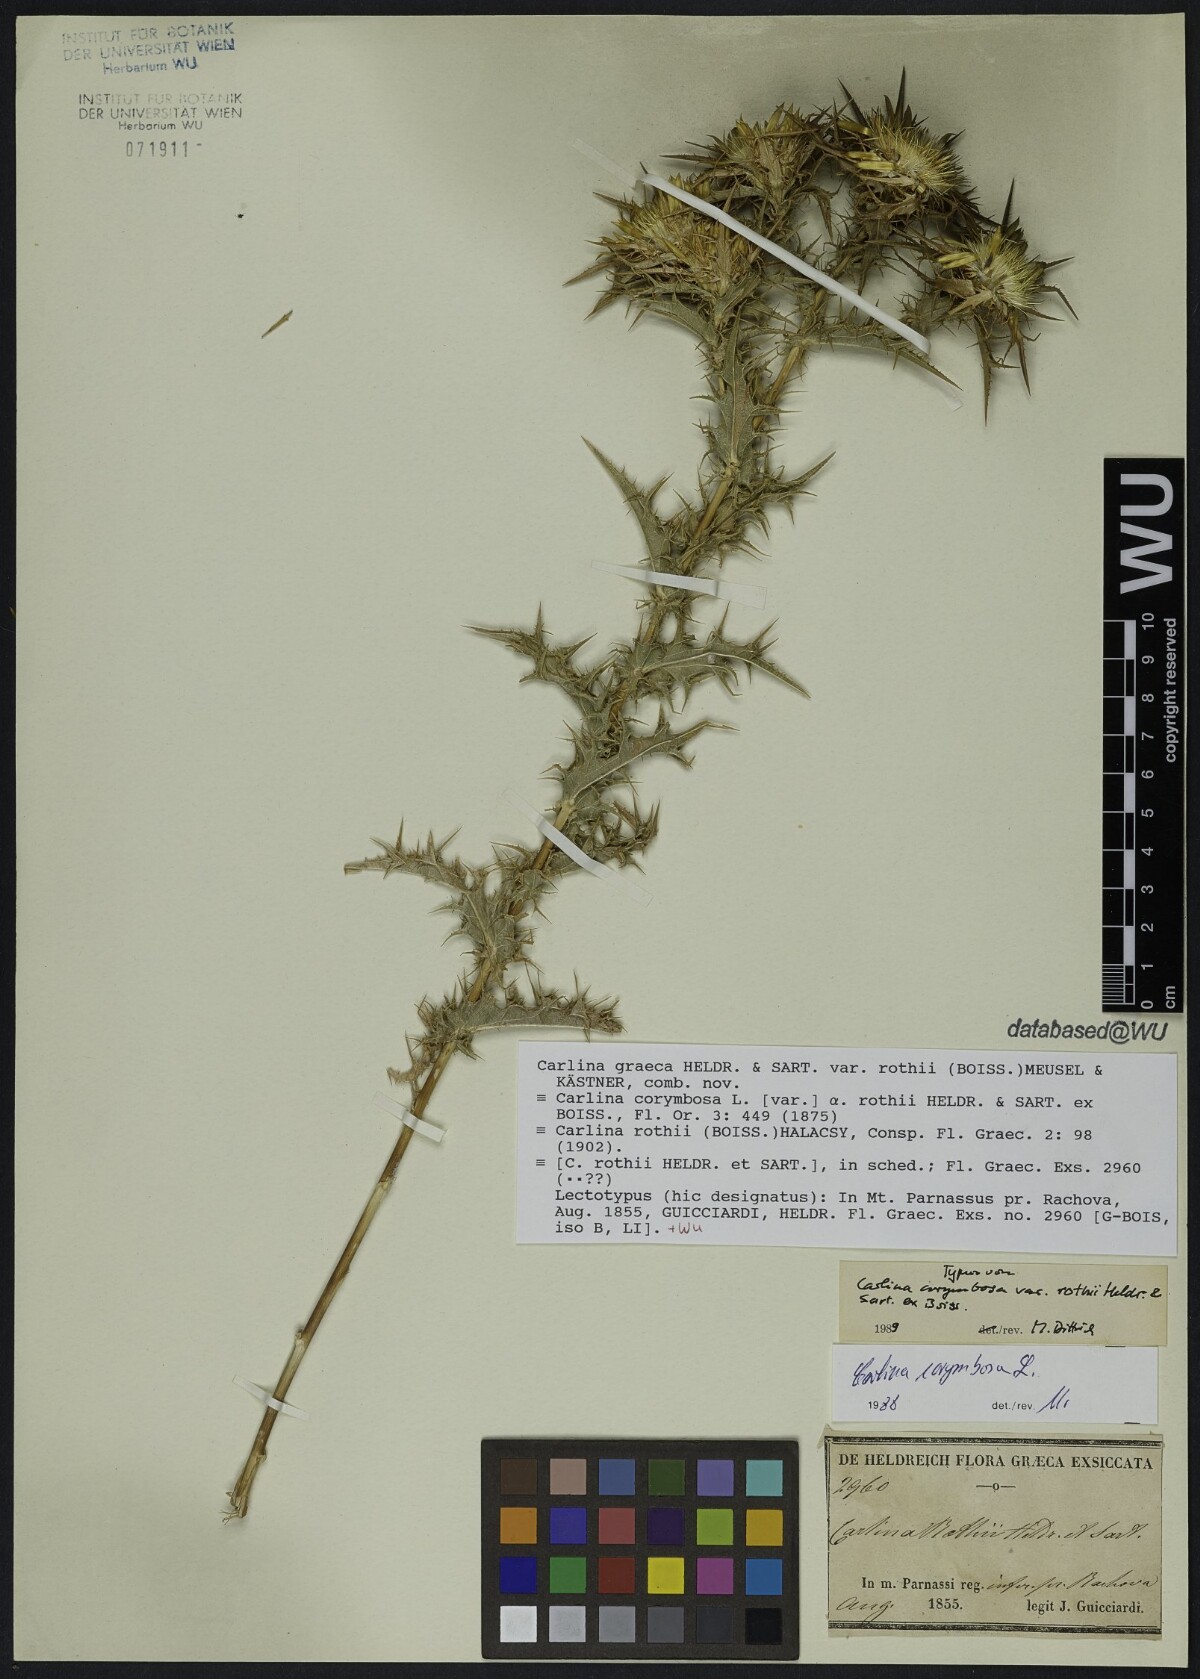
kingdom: Plantae
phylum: Tracheophyta
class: Magnoliopsida
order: Asterales
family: Asteraceae
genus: Carlina
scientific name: Carlina graeca
